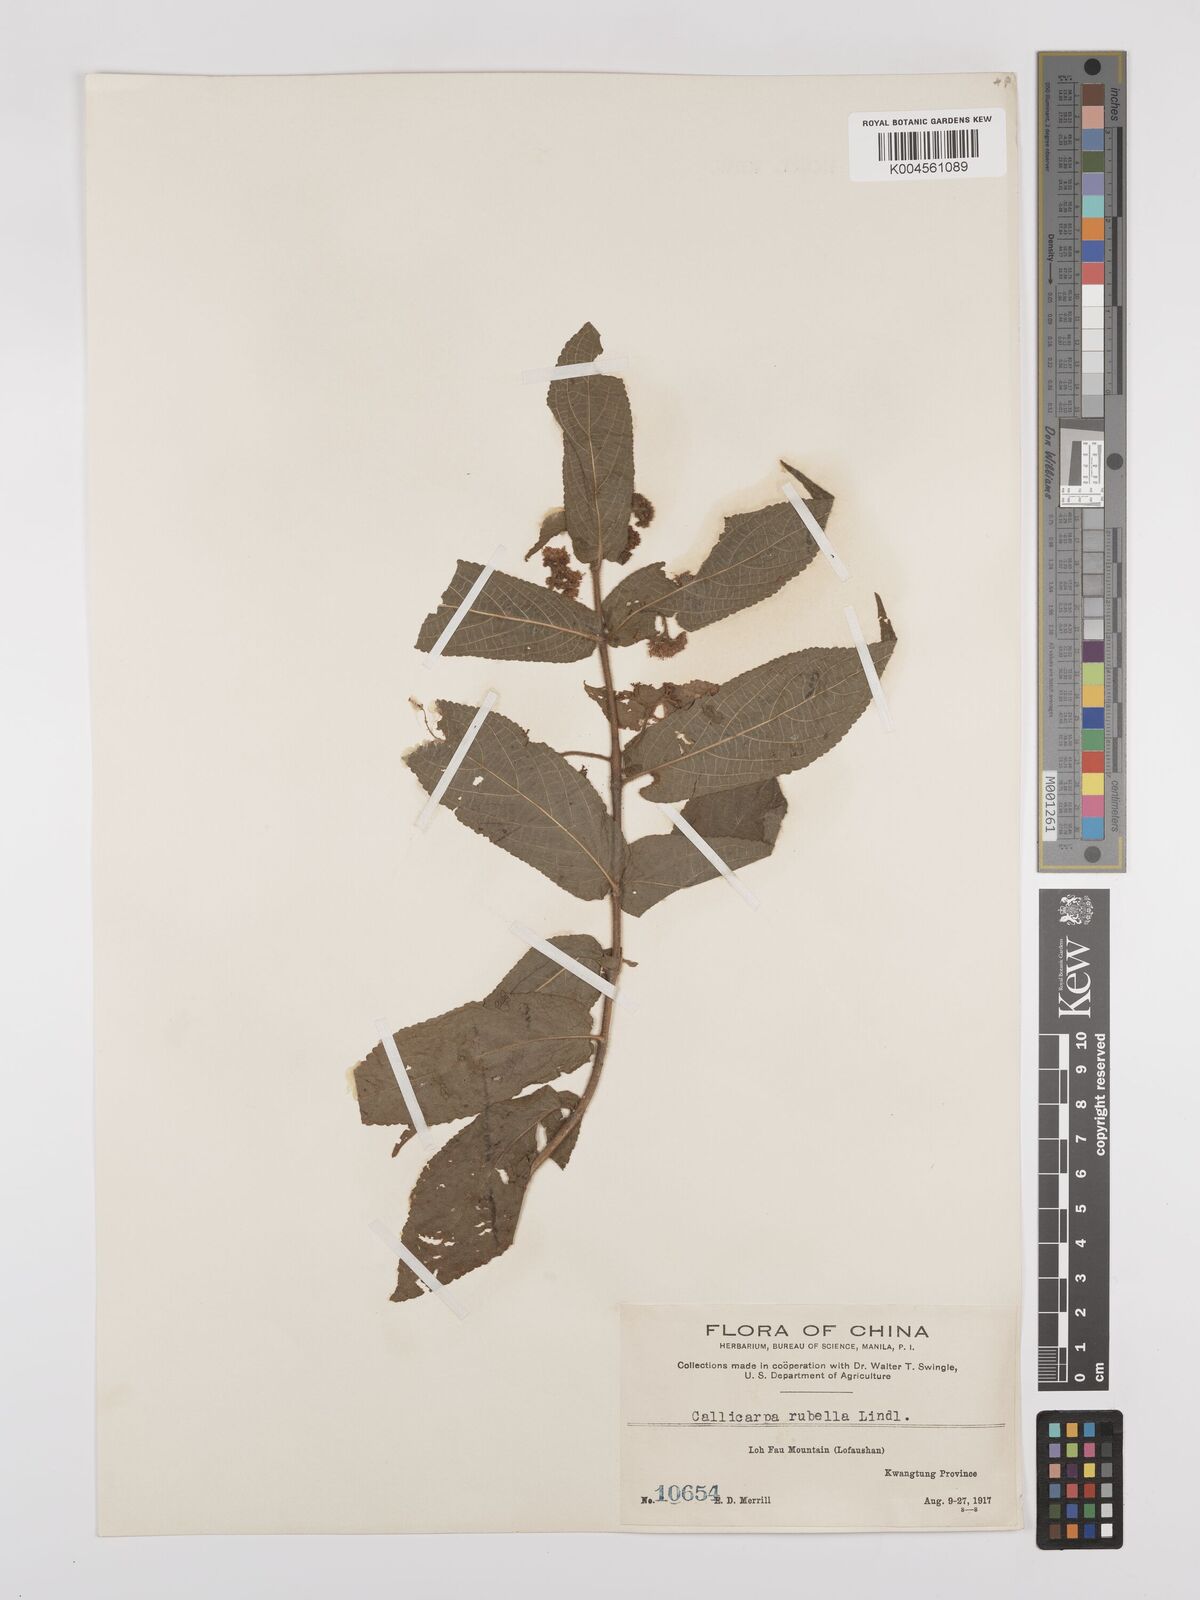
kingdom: Plantae
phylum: Tracheophyta
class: Magnoliopsida
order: Lamiales
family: Lamiaceae
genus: Callicarpa
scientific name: Callicarpa rubella
